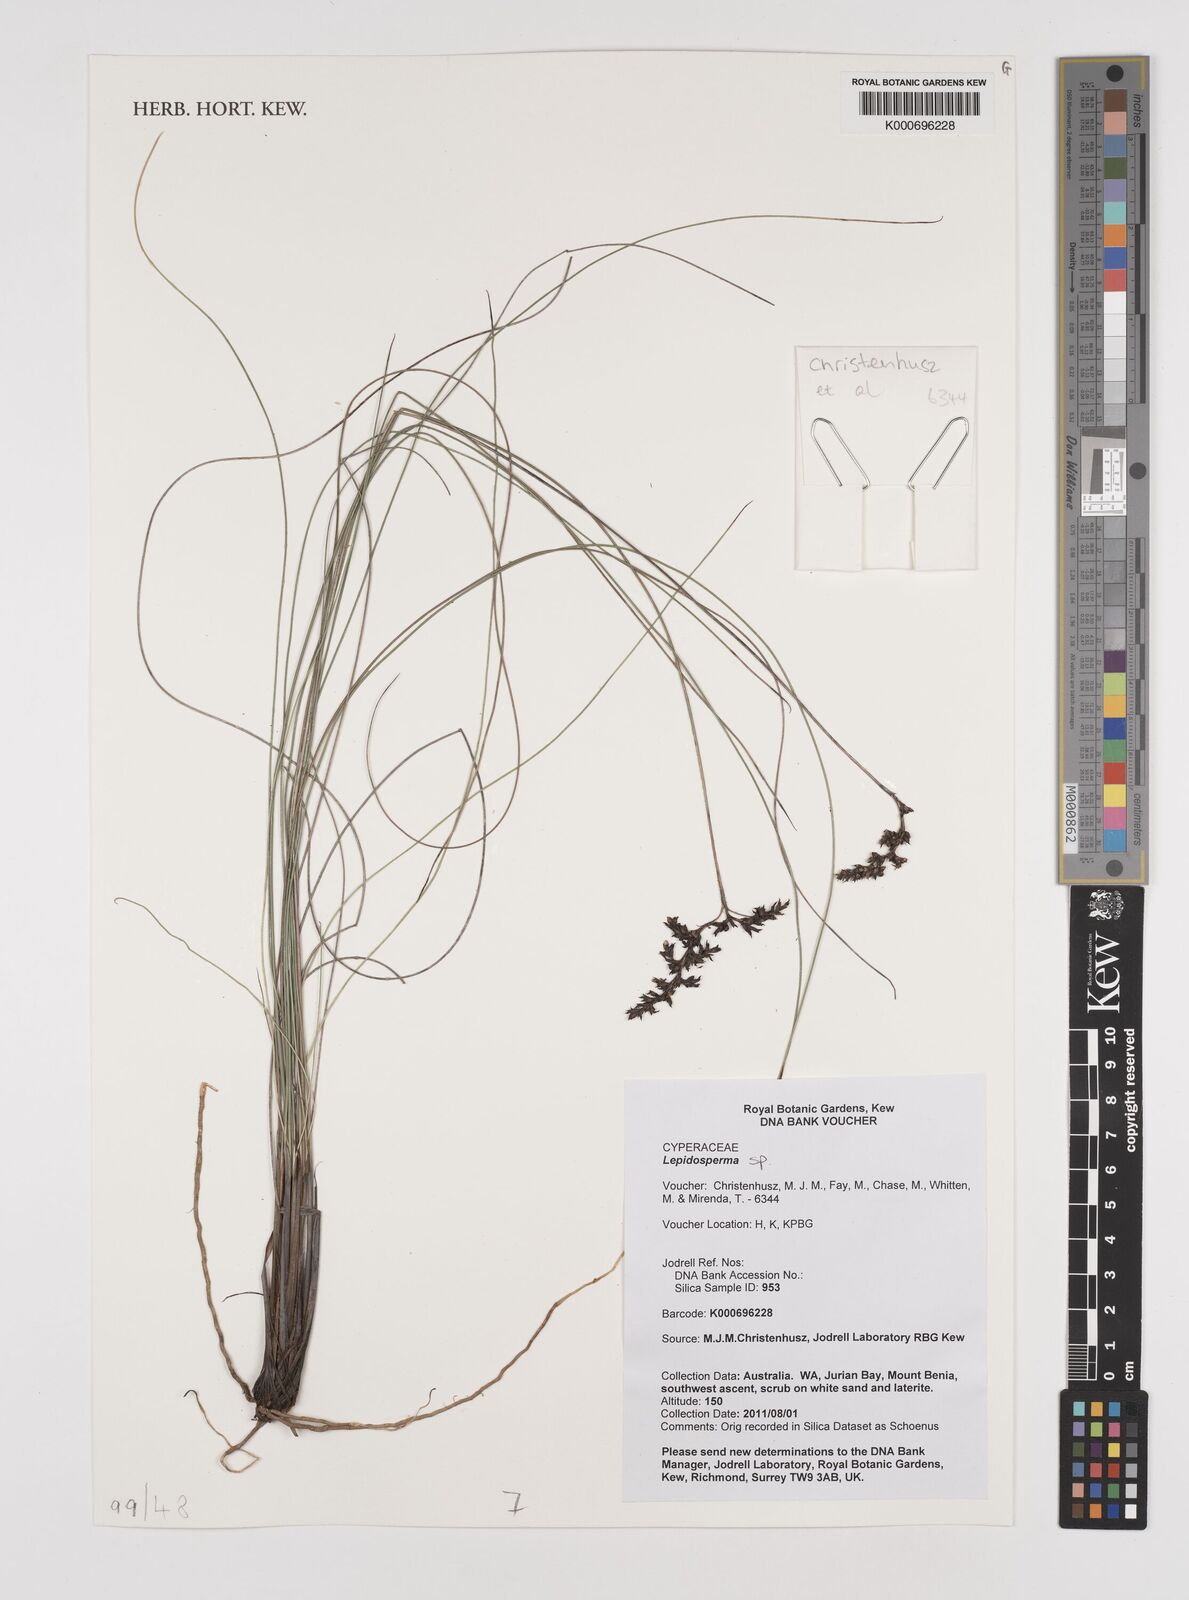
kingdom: Plantae
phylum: Tracheophyta
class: Liliopsida
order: Poales
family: Cyperaceae
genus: Lepidosperma
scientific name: Lepidosperma
